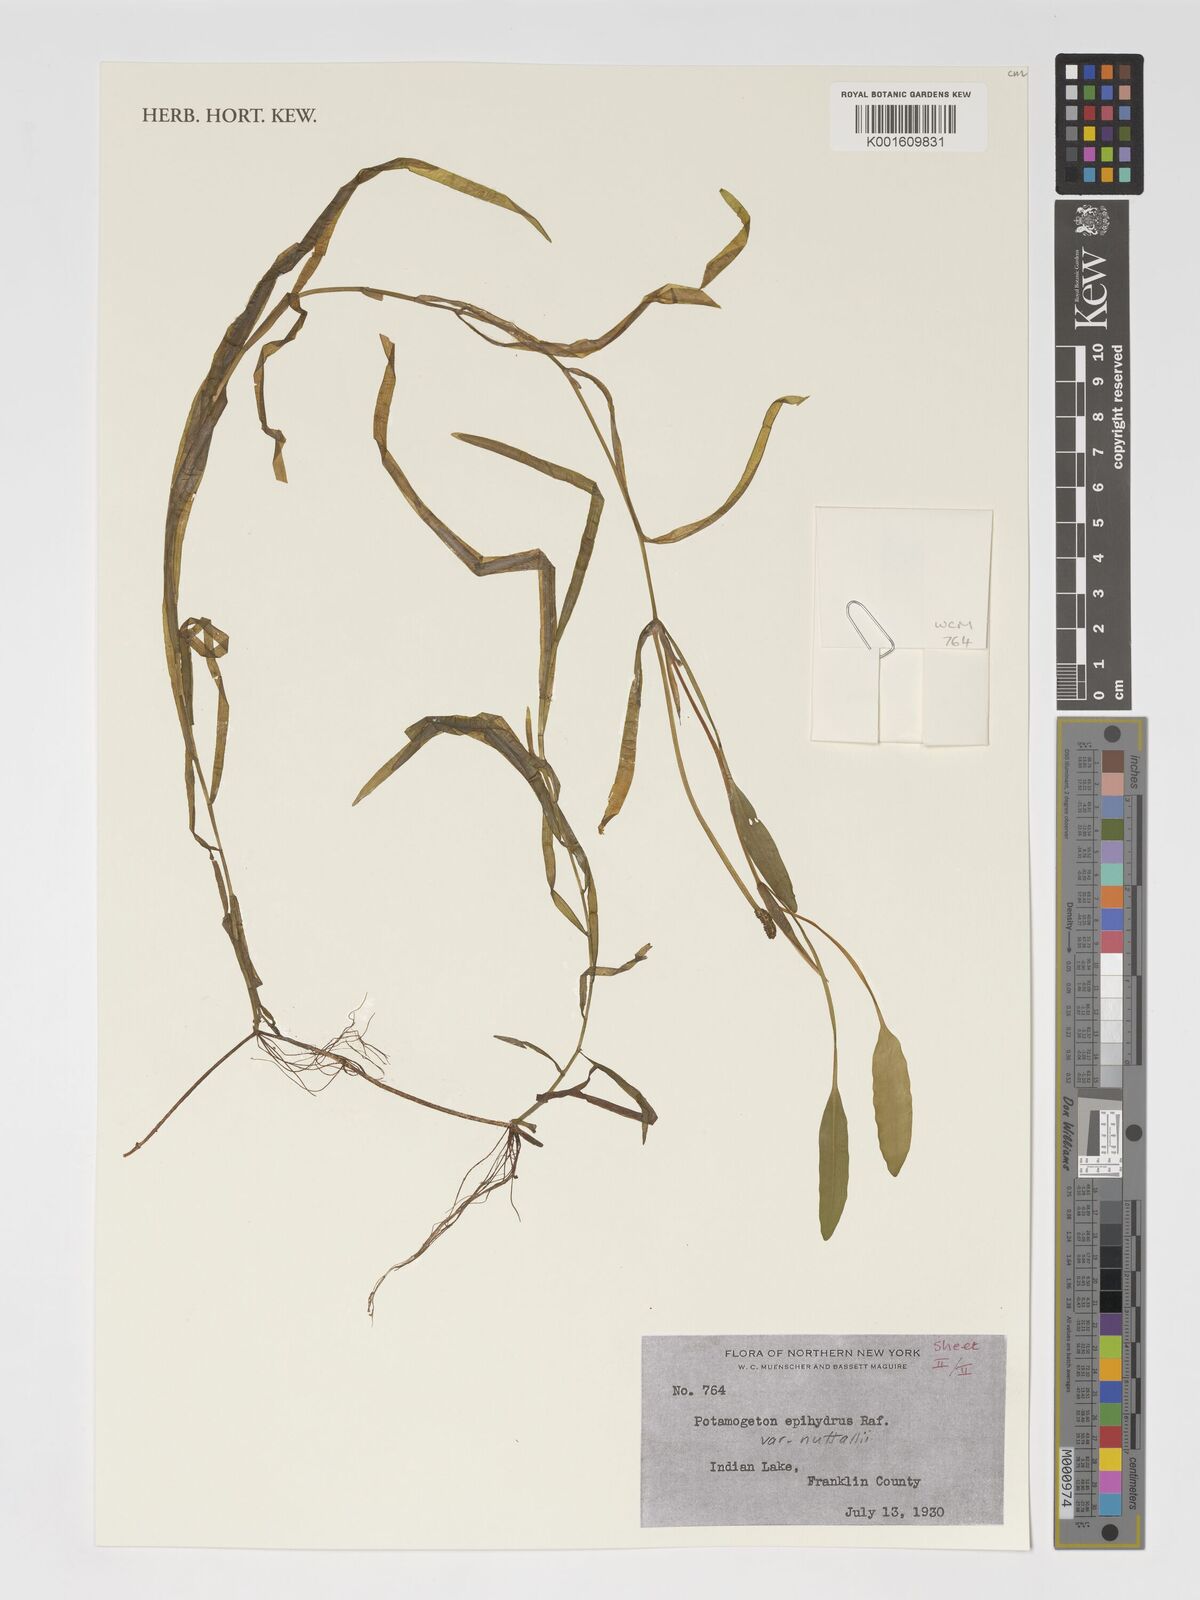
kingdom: Plantae
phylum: Tracheophyta
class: Liliopsida
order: Alismatales
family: Potamogetonaceae
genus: Potamogeton
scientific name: Potamogeton epihydrus
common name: American pondweed
